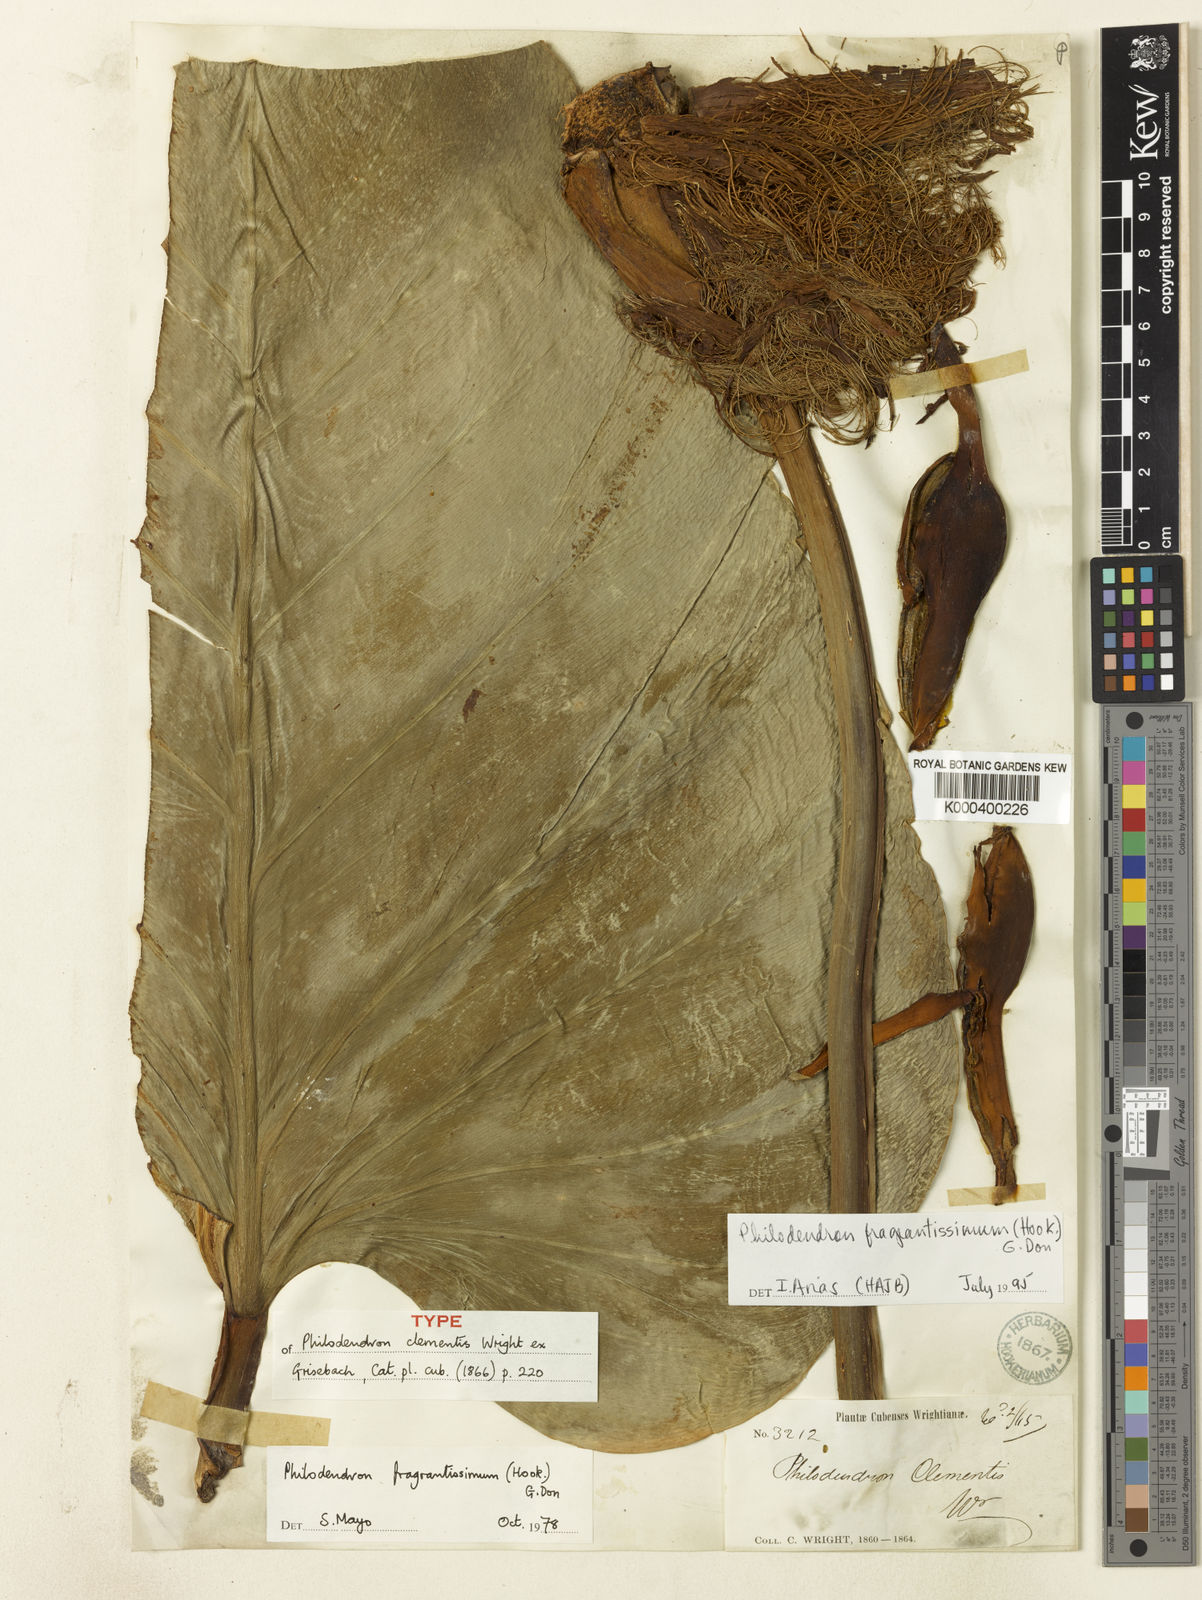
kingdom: Plantae
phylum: Tracheophyta
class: Liliopsida
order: Alismatales
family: Araceae
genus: Philodendron
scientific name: Philodendron fragrantissimum
